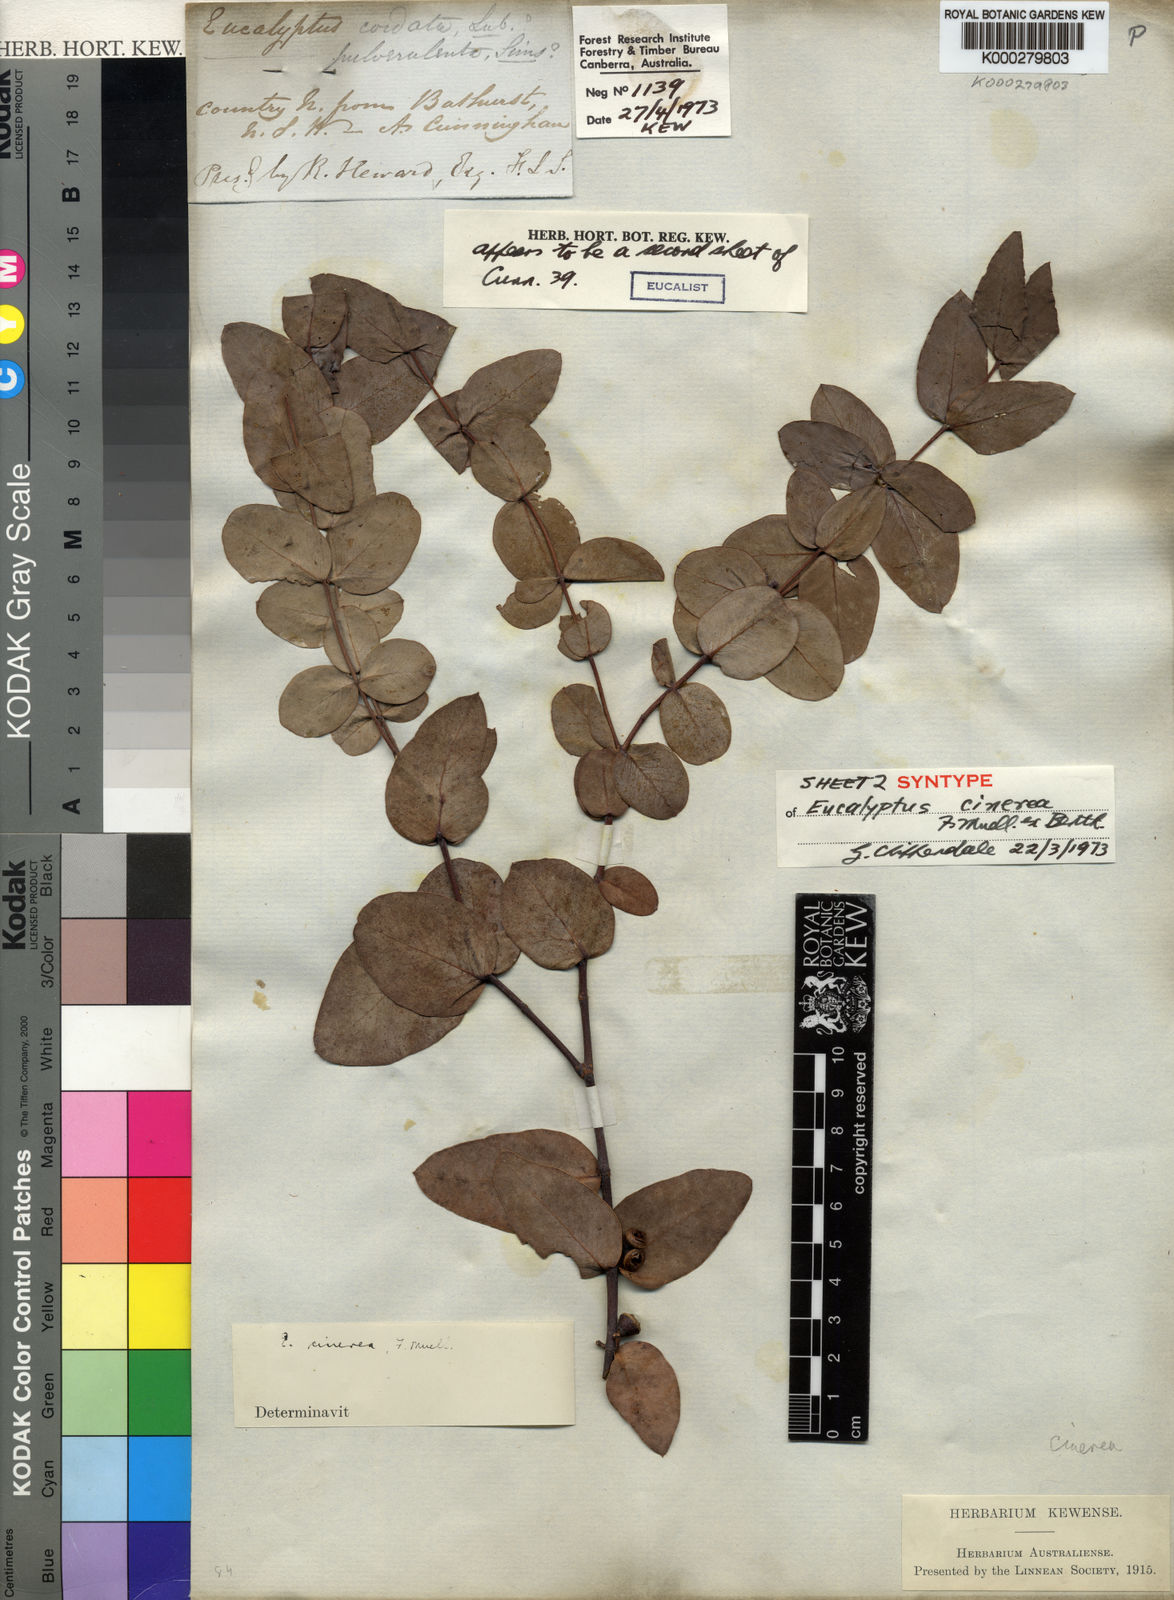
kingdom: Plantae
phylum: Tracheophyta
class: Magnoliopsida
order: Myrtales
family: Myrtaceae
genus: Eucalyptus
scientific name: Eucalyptus cinerea
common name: Argyle apple
